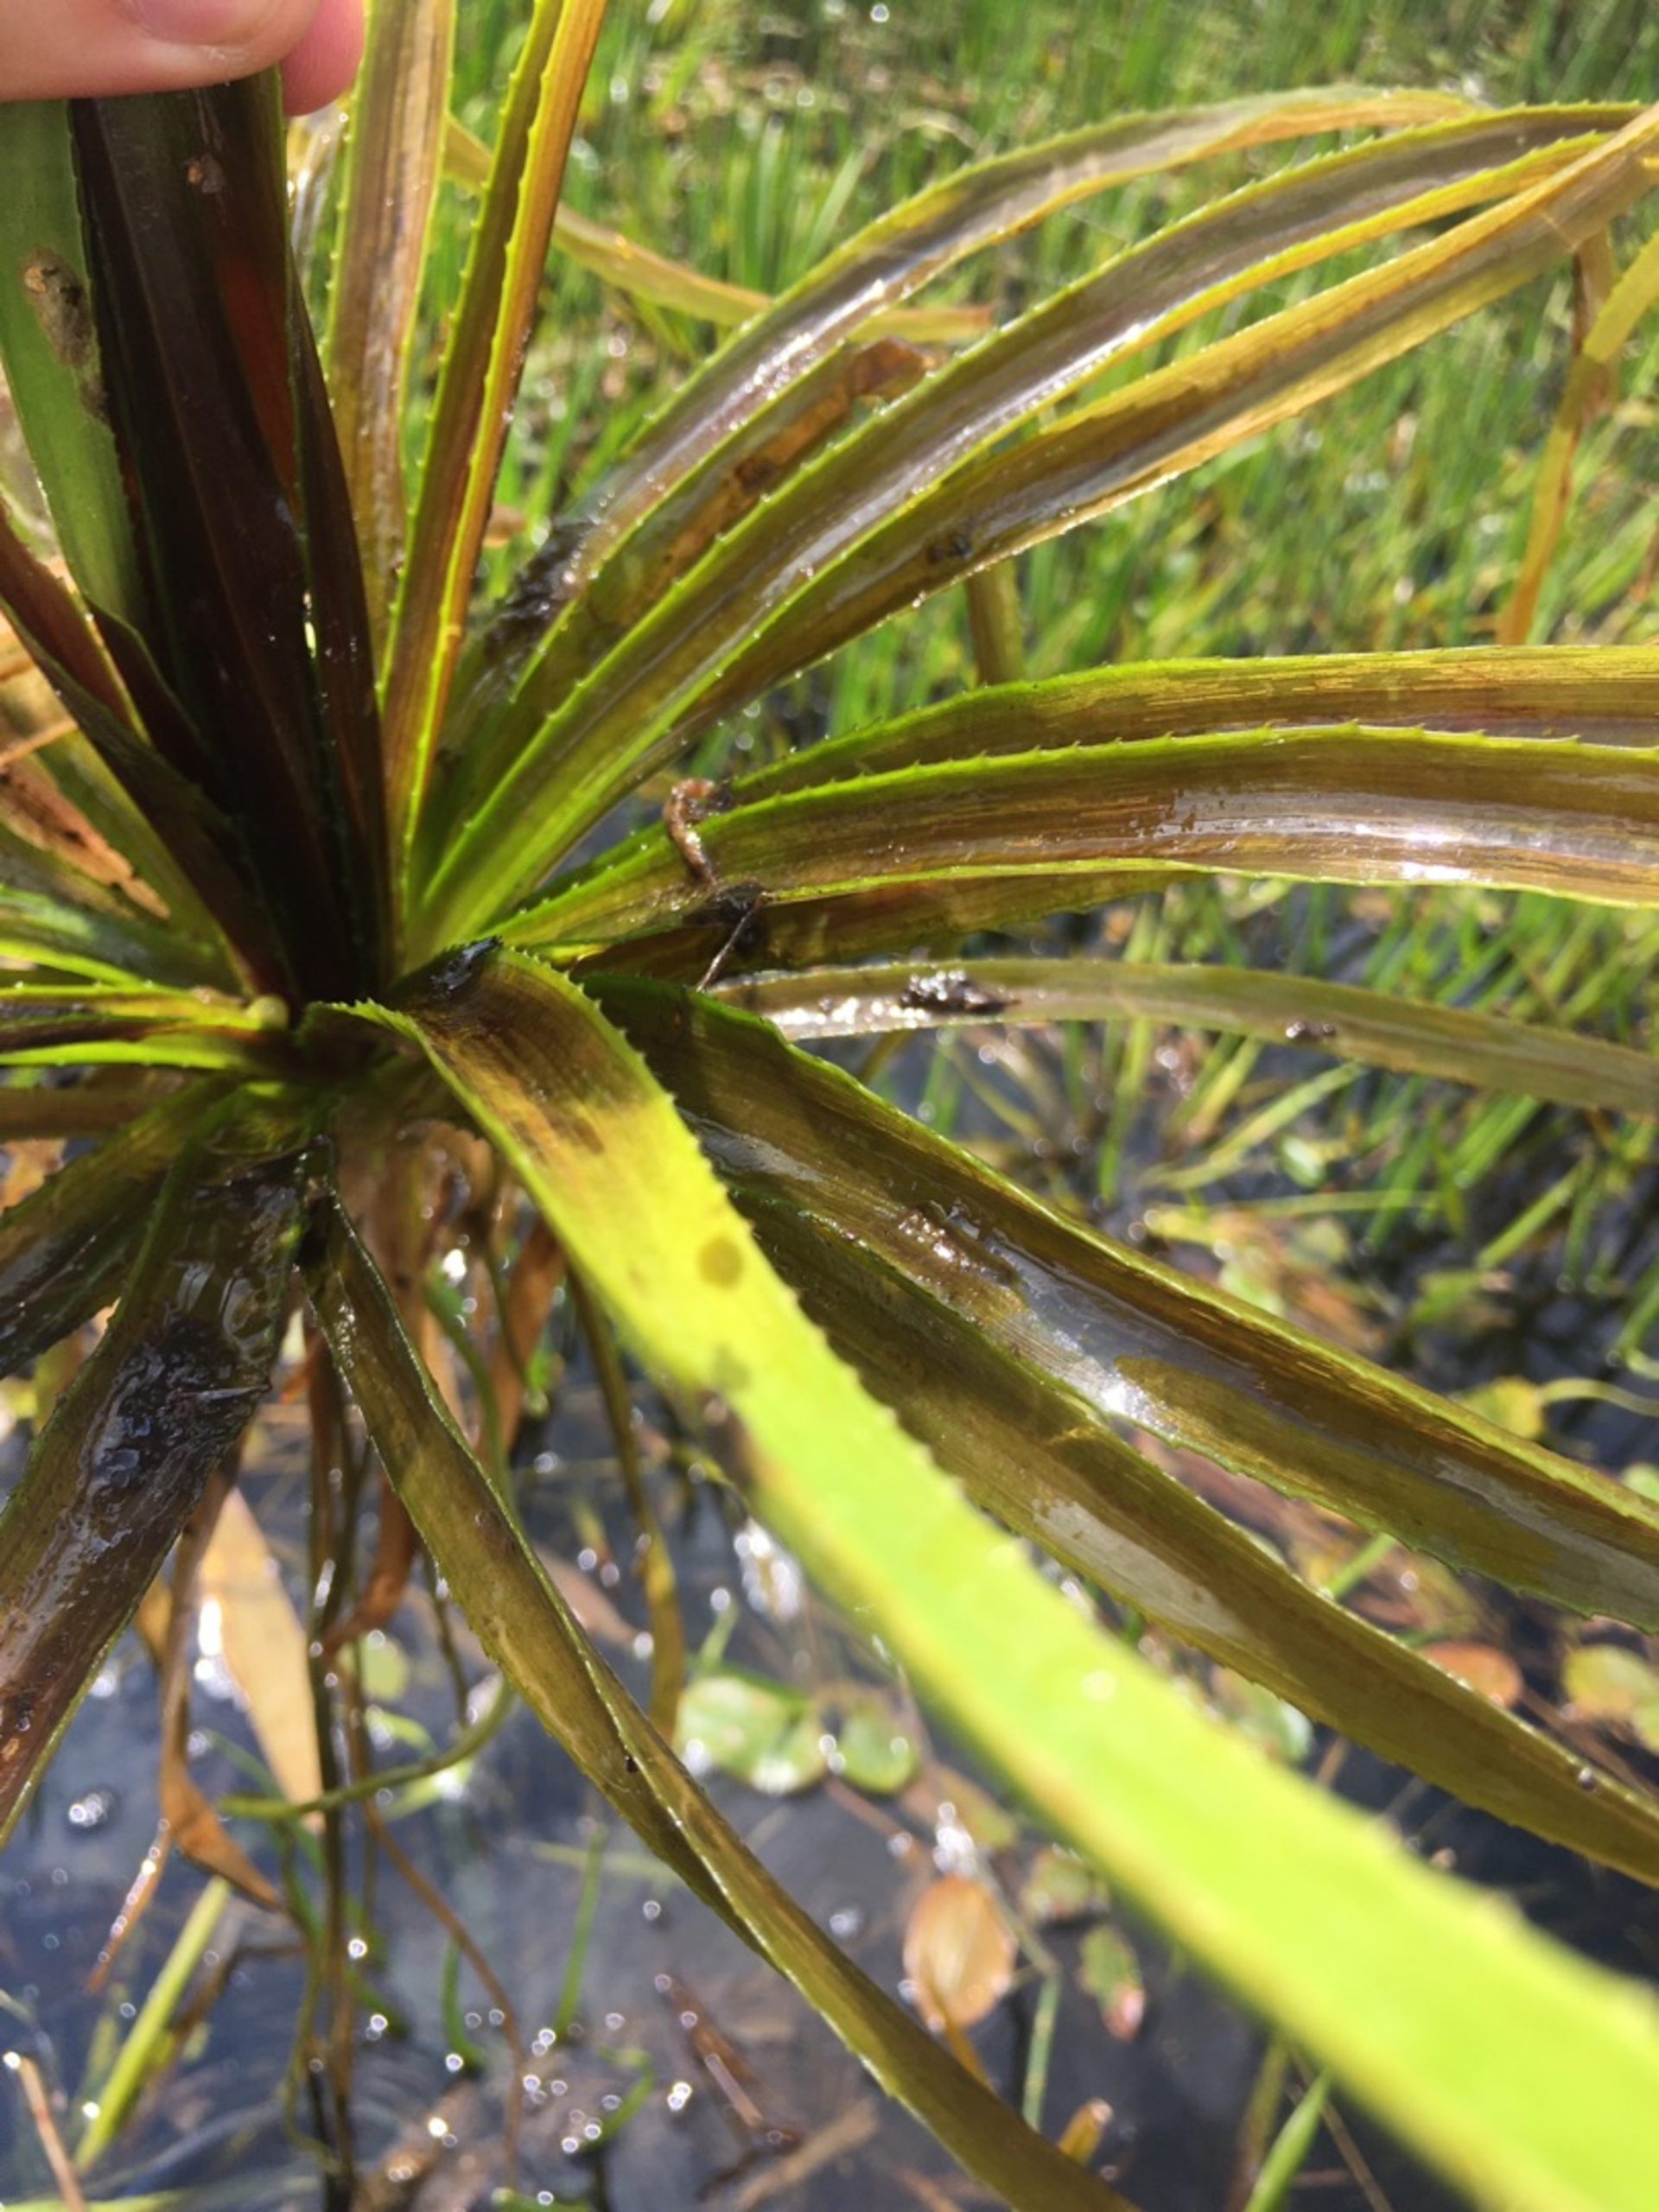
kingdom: Plantae
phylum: Tracheophyta
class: Liliopsida
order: Alismatales
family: Hydrocharitaceae
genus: Stratiotes
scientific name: Stratiotes aloides
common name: Krebseklo
